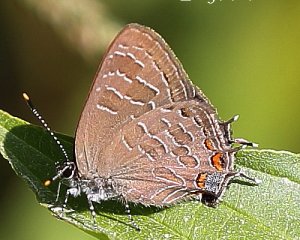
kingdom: Animalia
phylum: Arthropoda
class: Insecta
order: Lepidoptera
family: Lycaenidae
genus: Satyrium
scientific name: Satyrium liparops
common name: Striped Hairstreak
